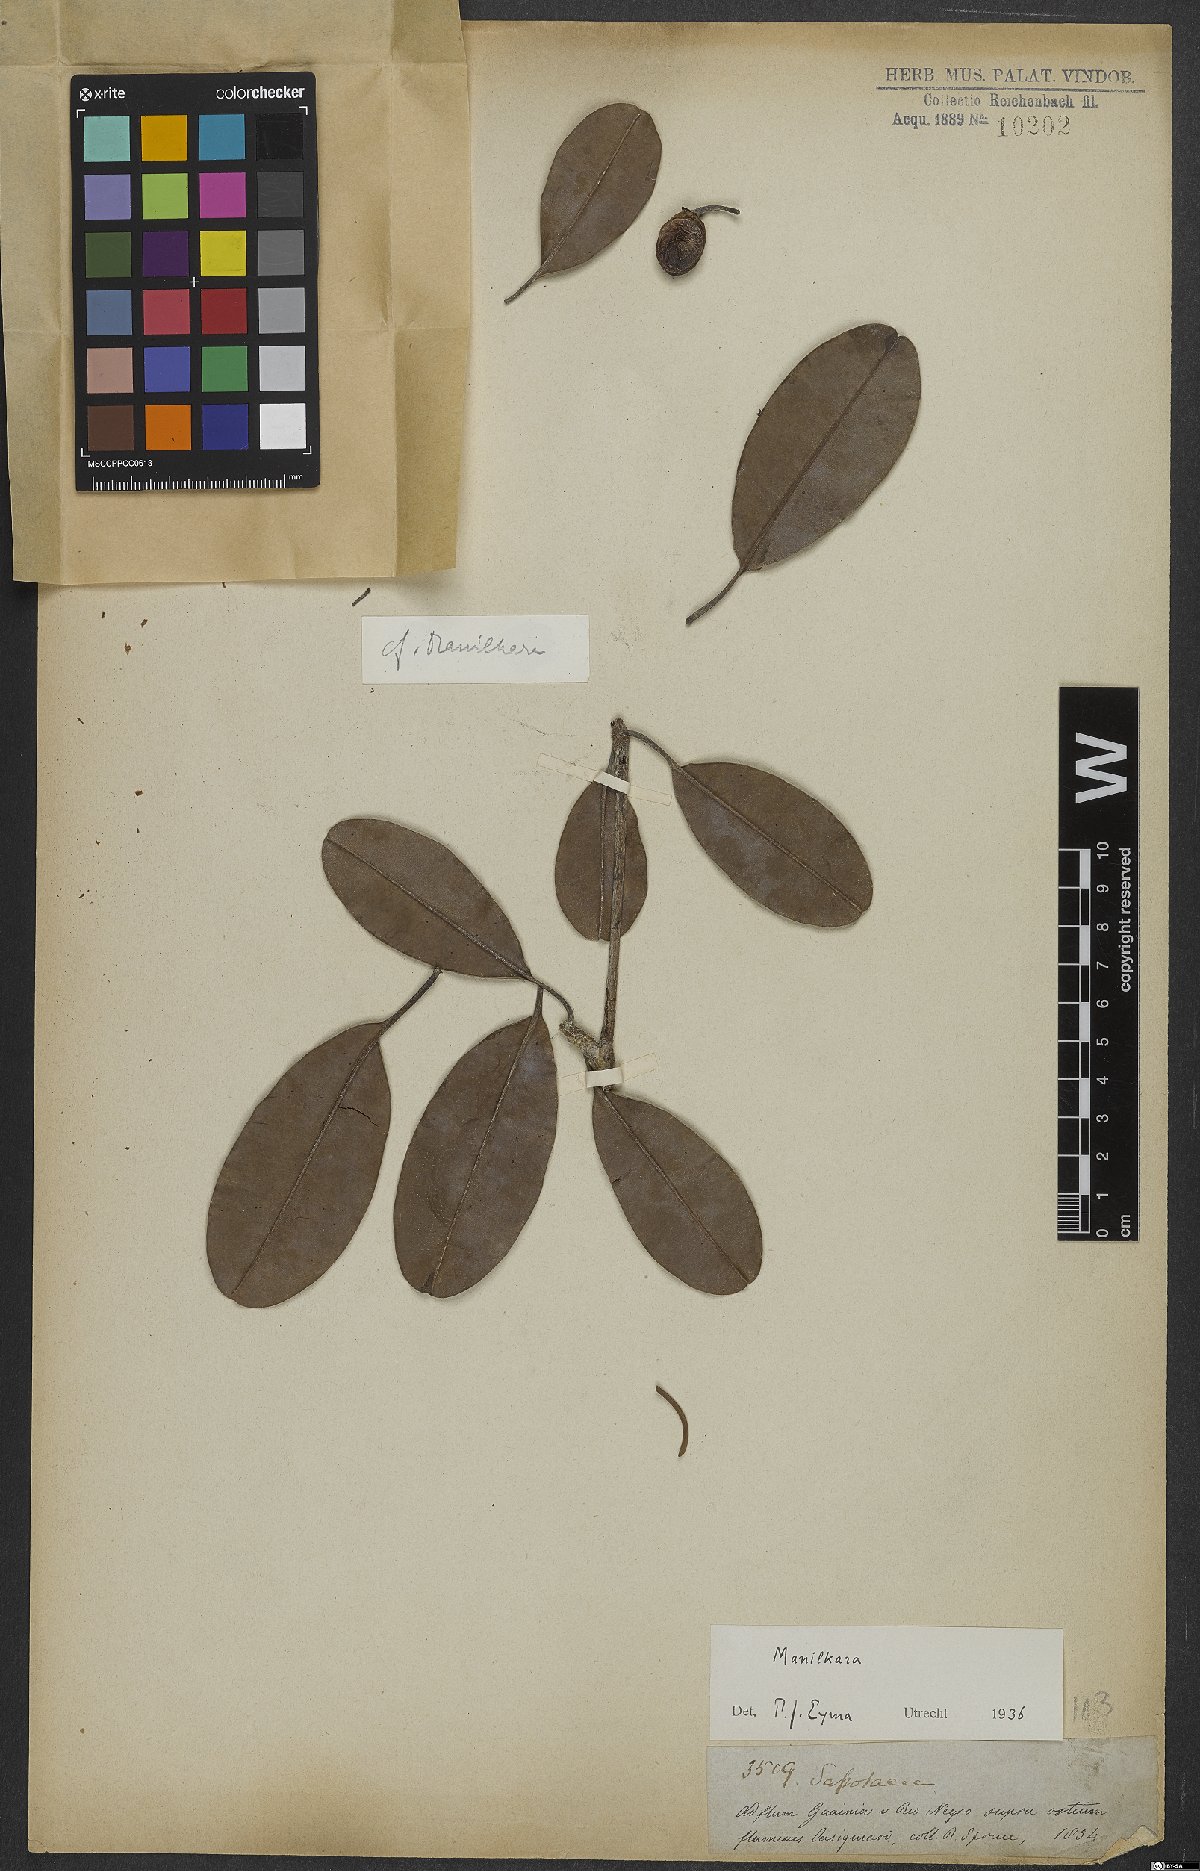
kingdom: Plantae
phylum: Tracheophyta
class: Magnoliopsida
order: Ericales
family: Sapotaceae
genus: Manilkara
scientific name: Manilkara
